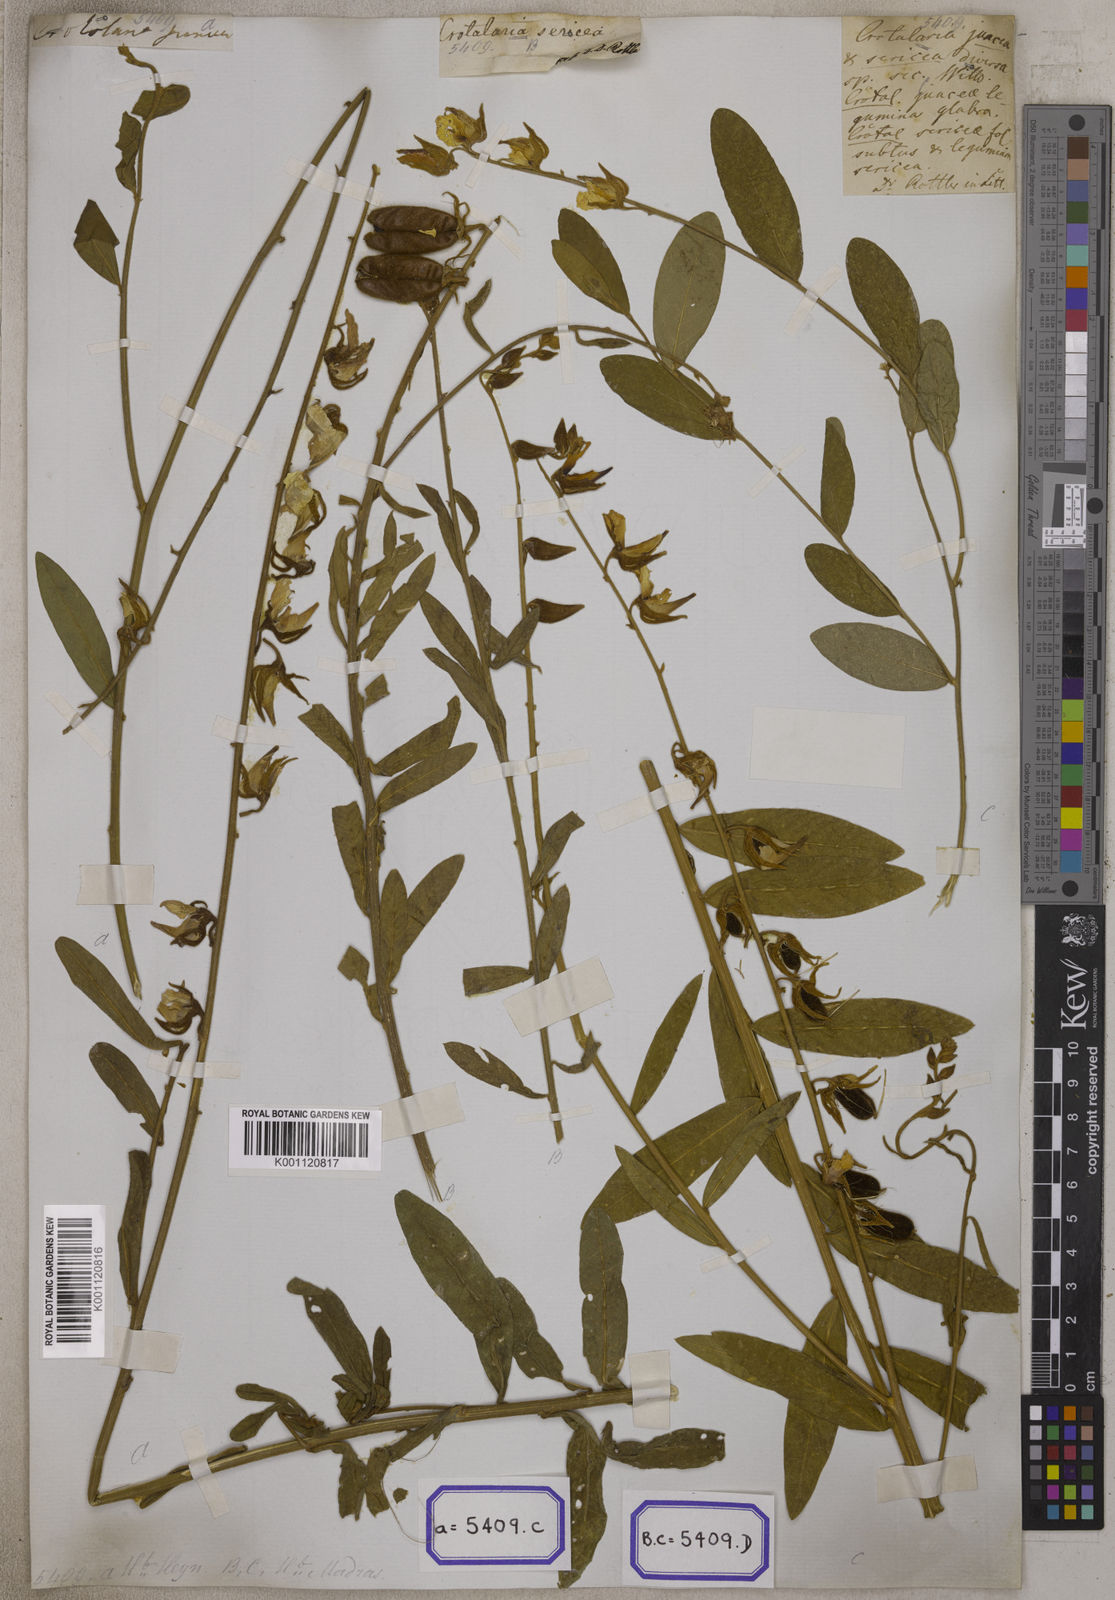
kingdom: Plantae
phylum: Tracheophyta
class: Magnoliopsida
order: Fabales
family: Fabaceae
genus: Crotalaria
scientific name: Crotalaria juncea
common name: Sunn hemp
